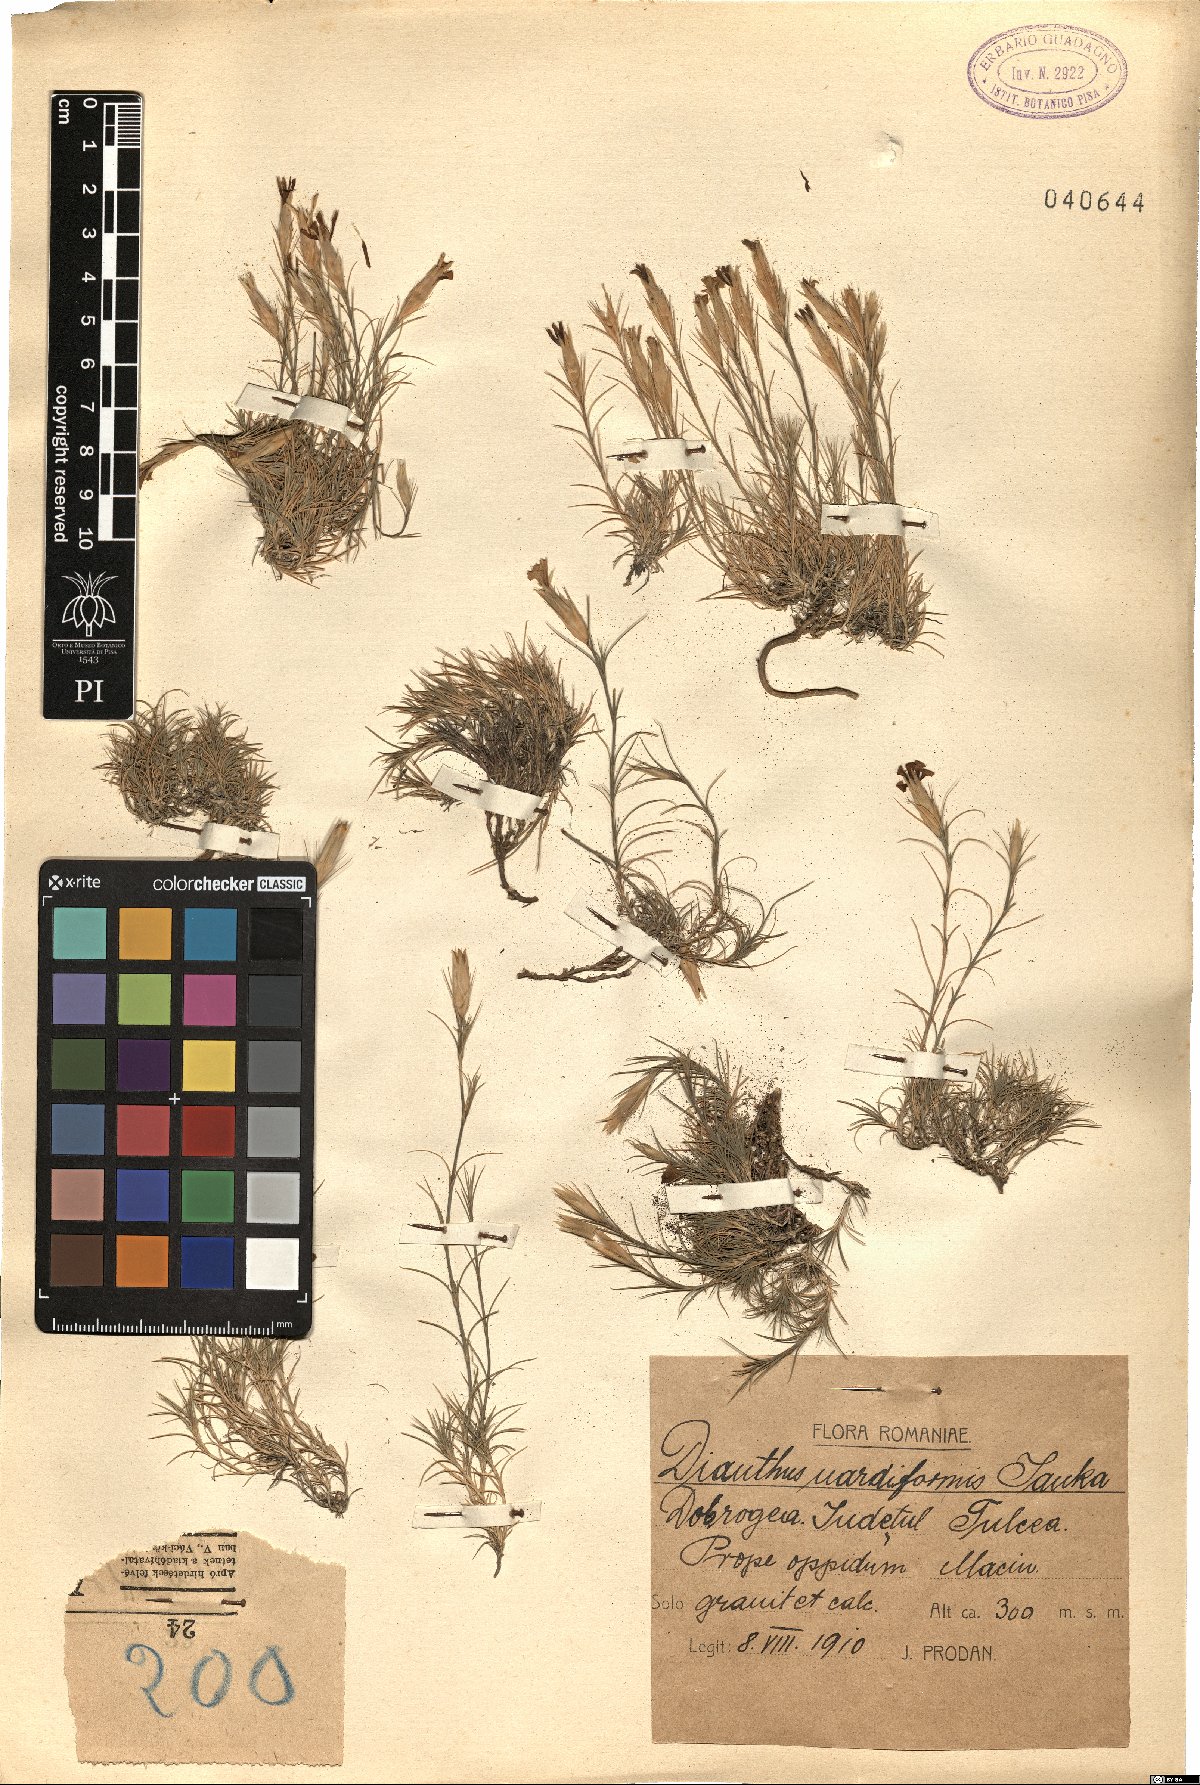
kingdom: Plantae
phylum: Tracheophyta
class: Magnoliopsida
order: Caryophyllales
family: Caryophyllaceae
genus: Dianthus
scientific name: Dianthus nardiformis
